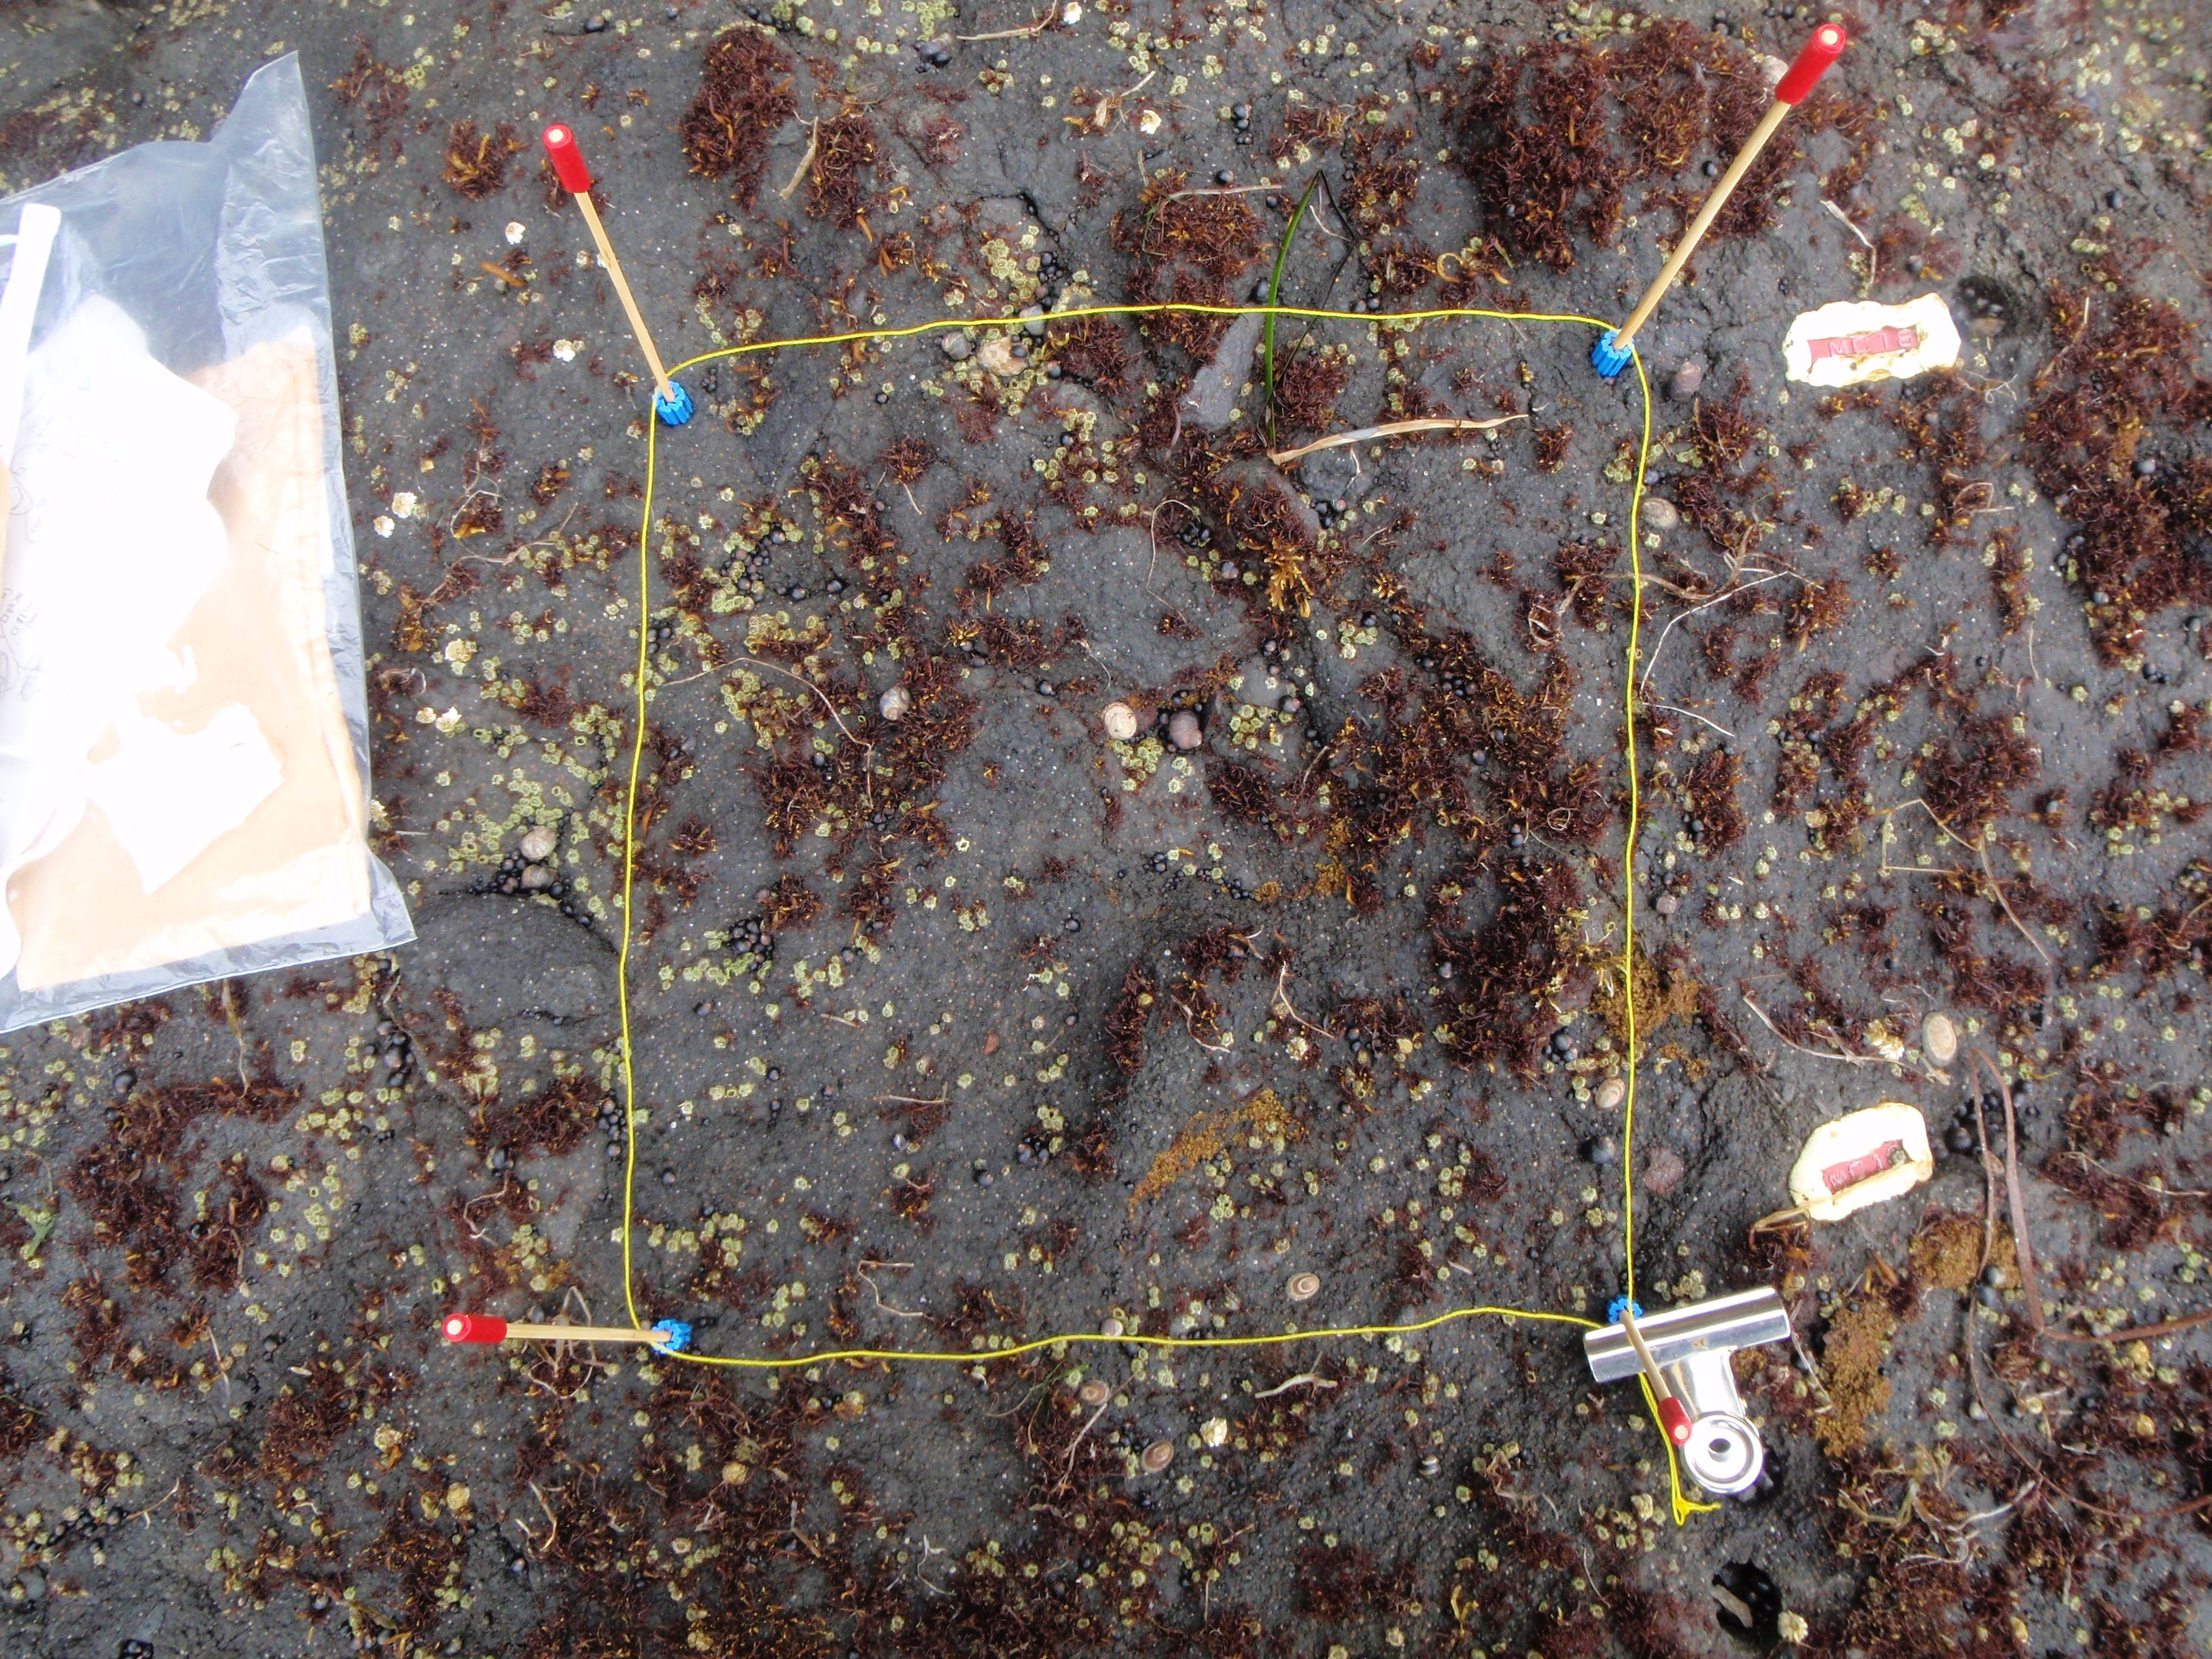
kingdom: Plantae
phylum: Rhodophyta
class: Florideophyceae
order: Gigartinales
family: Endocladiaceae
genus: Gloiopeltis
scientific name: Gloiopeltis furcata
